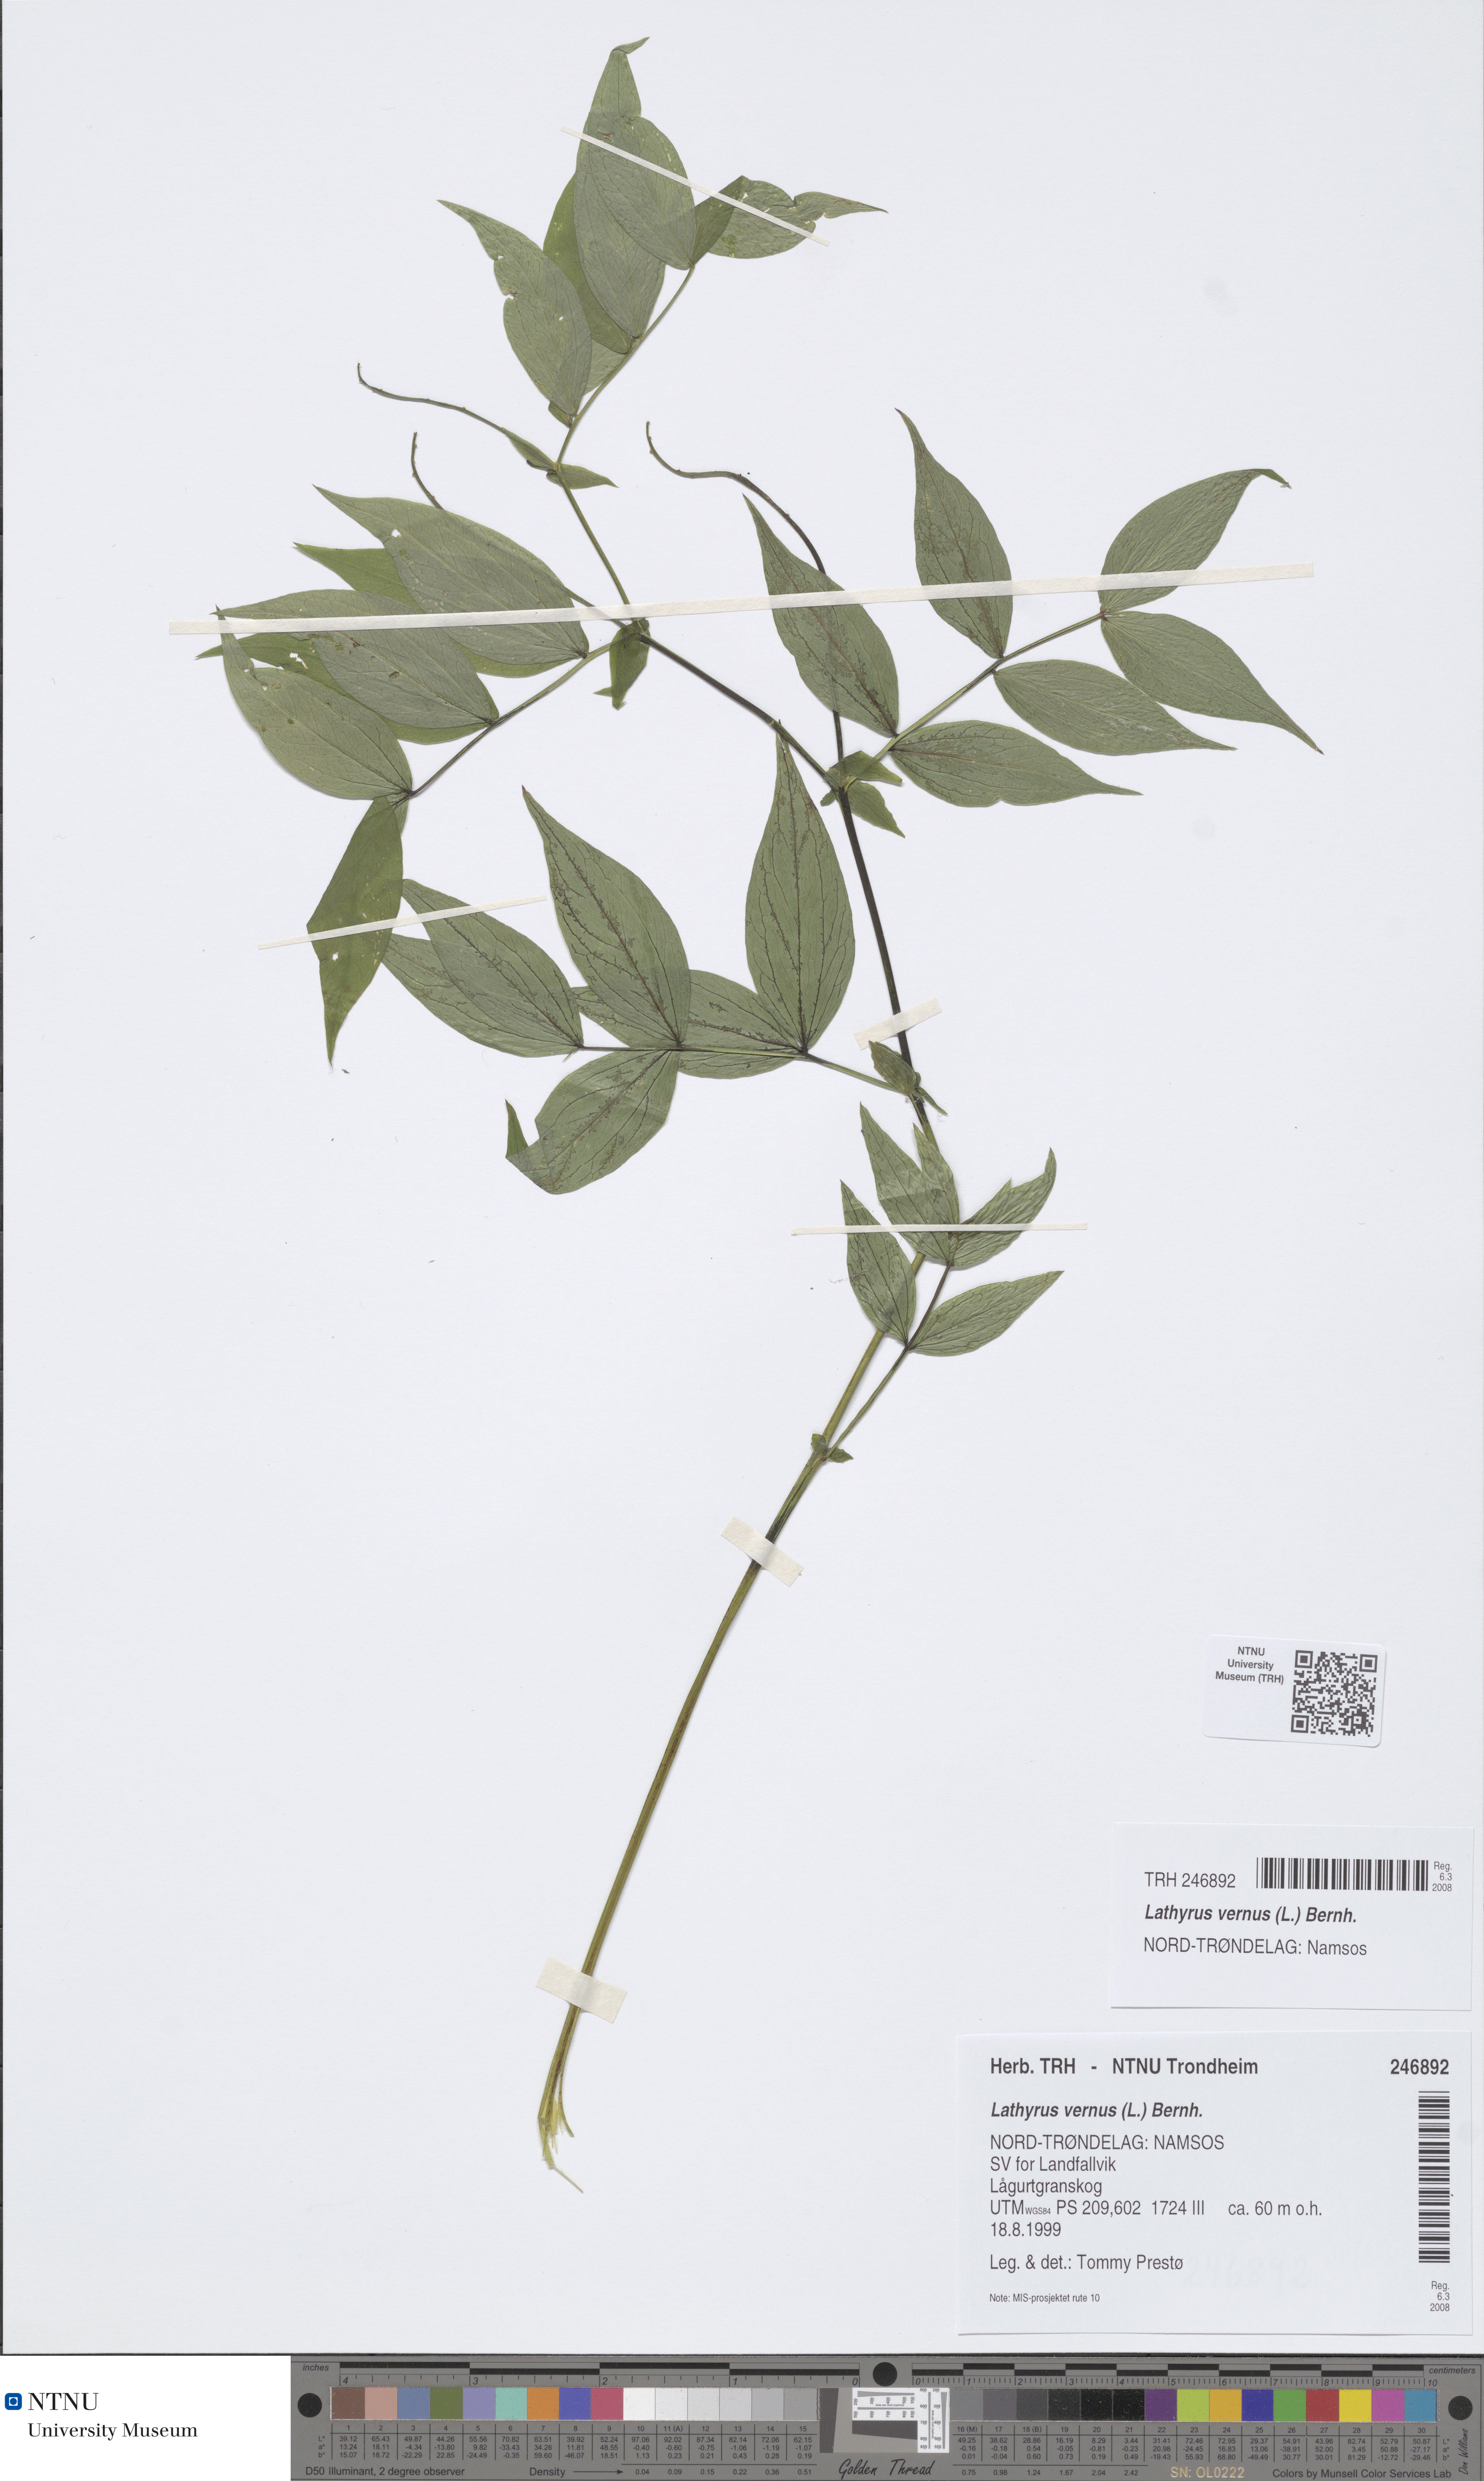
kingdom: Plantae
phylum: Tracheophyta
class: Magnoliopsida
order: Fabales
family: Fabaceae
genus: Lathyrus
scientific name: Lathyrus vernus
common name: Spring pea
